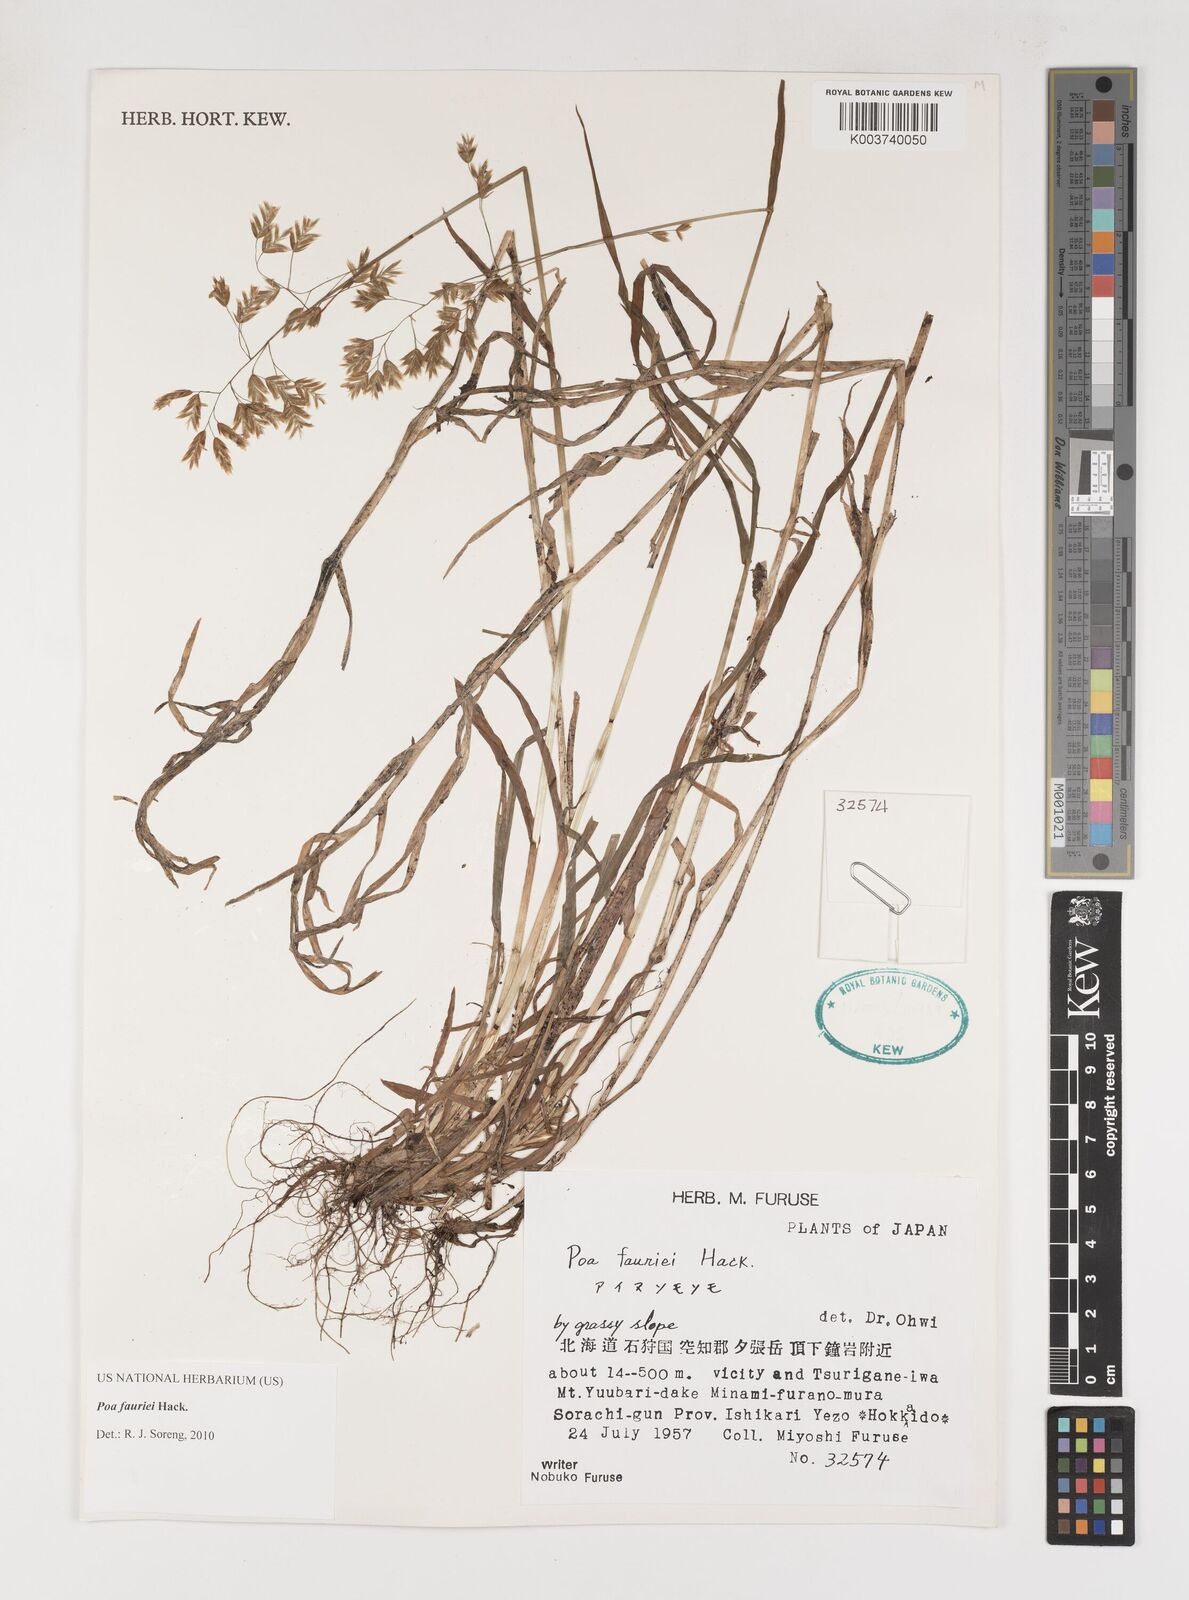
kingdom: Plantae
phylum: Tracheophyta
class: Liliopsida
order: Poales
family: Poaceae
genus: Poa
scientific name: Poa fauriei
